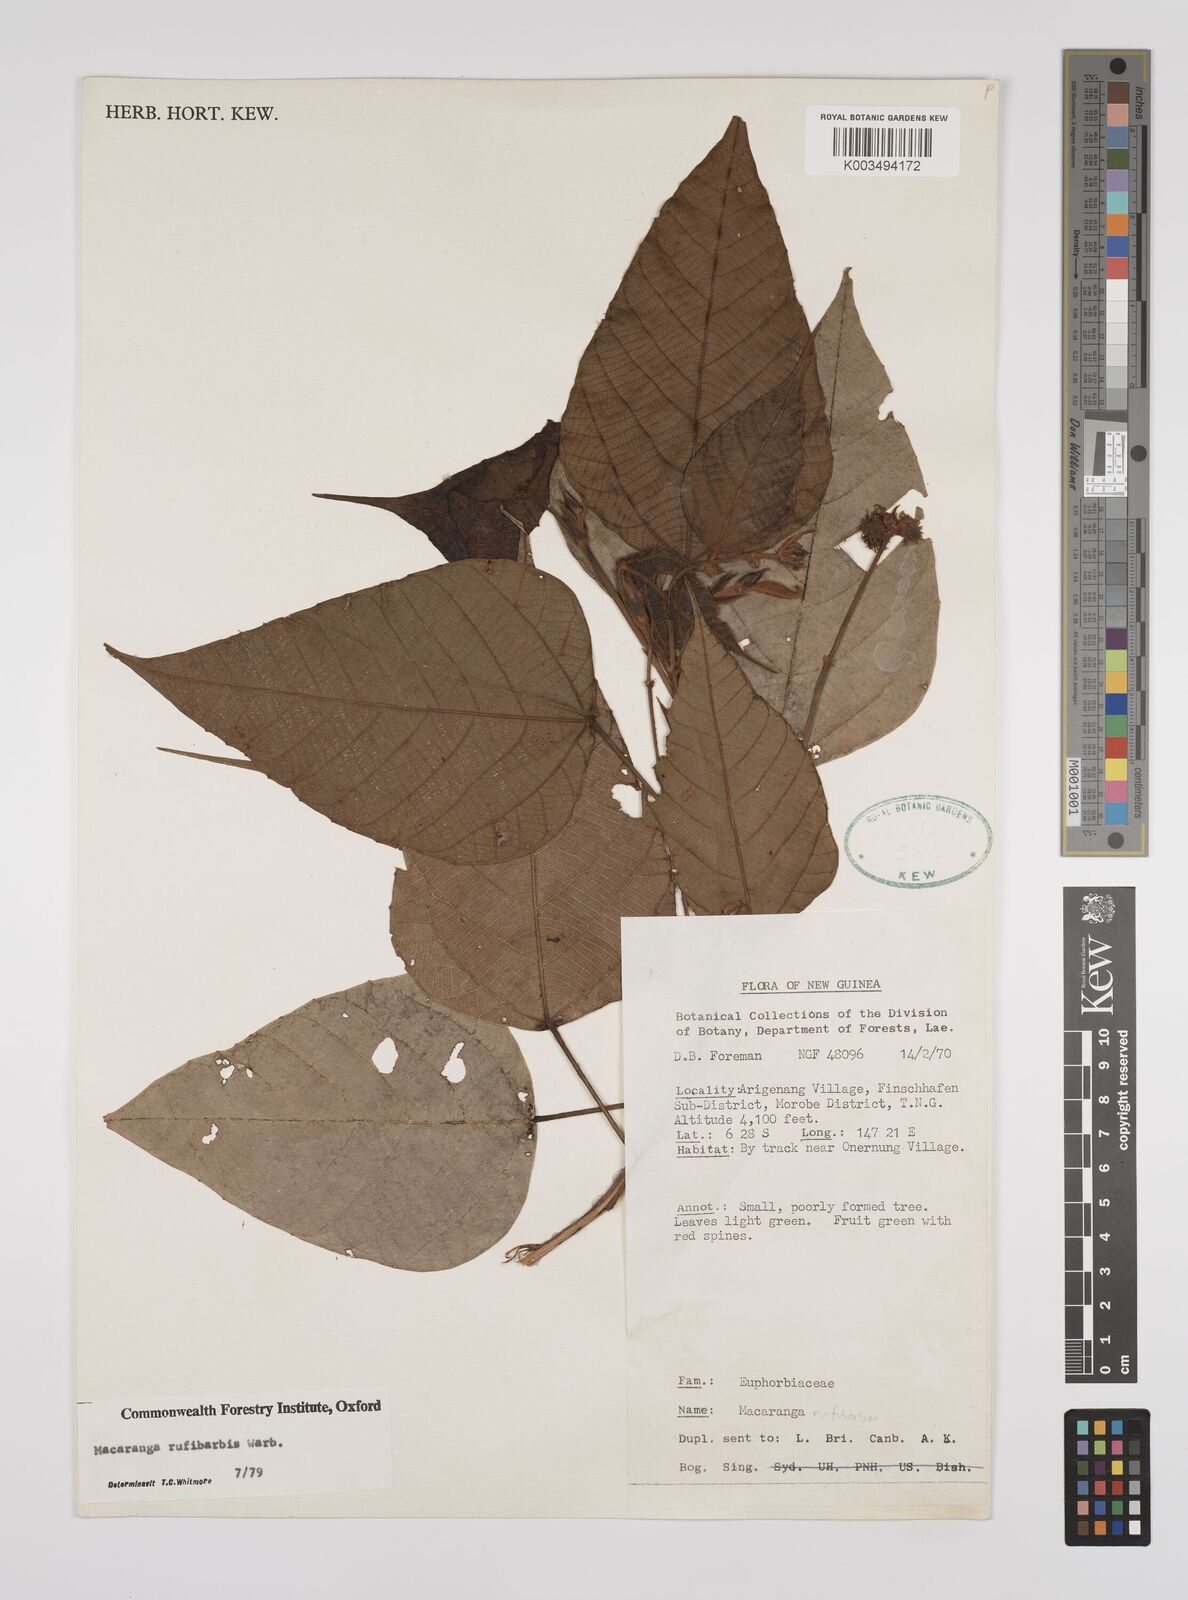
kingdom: Plantae
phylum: Tracheophyta
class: Magnoliopsida
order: Malpighiales
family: Euphorbiaceae
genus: Macaranga
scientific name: Macaranga rufibarbis
